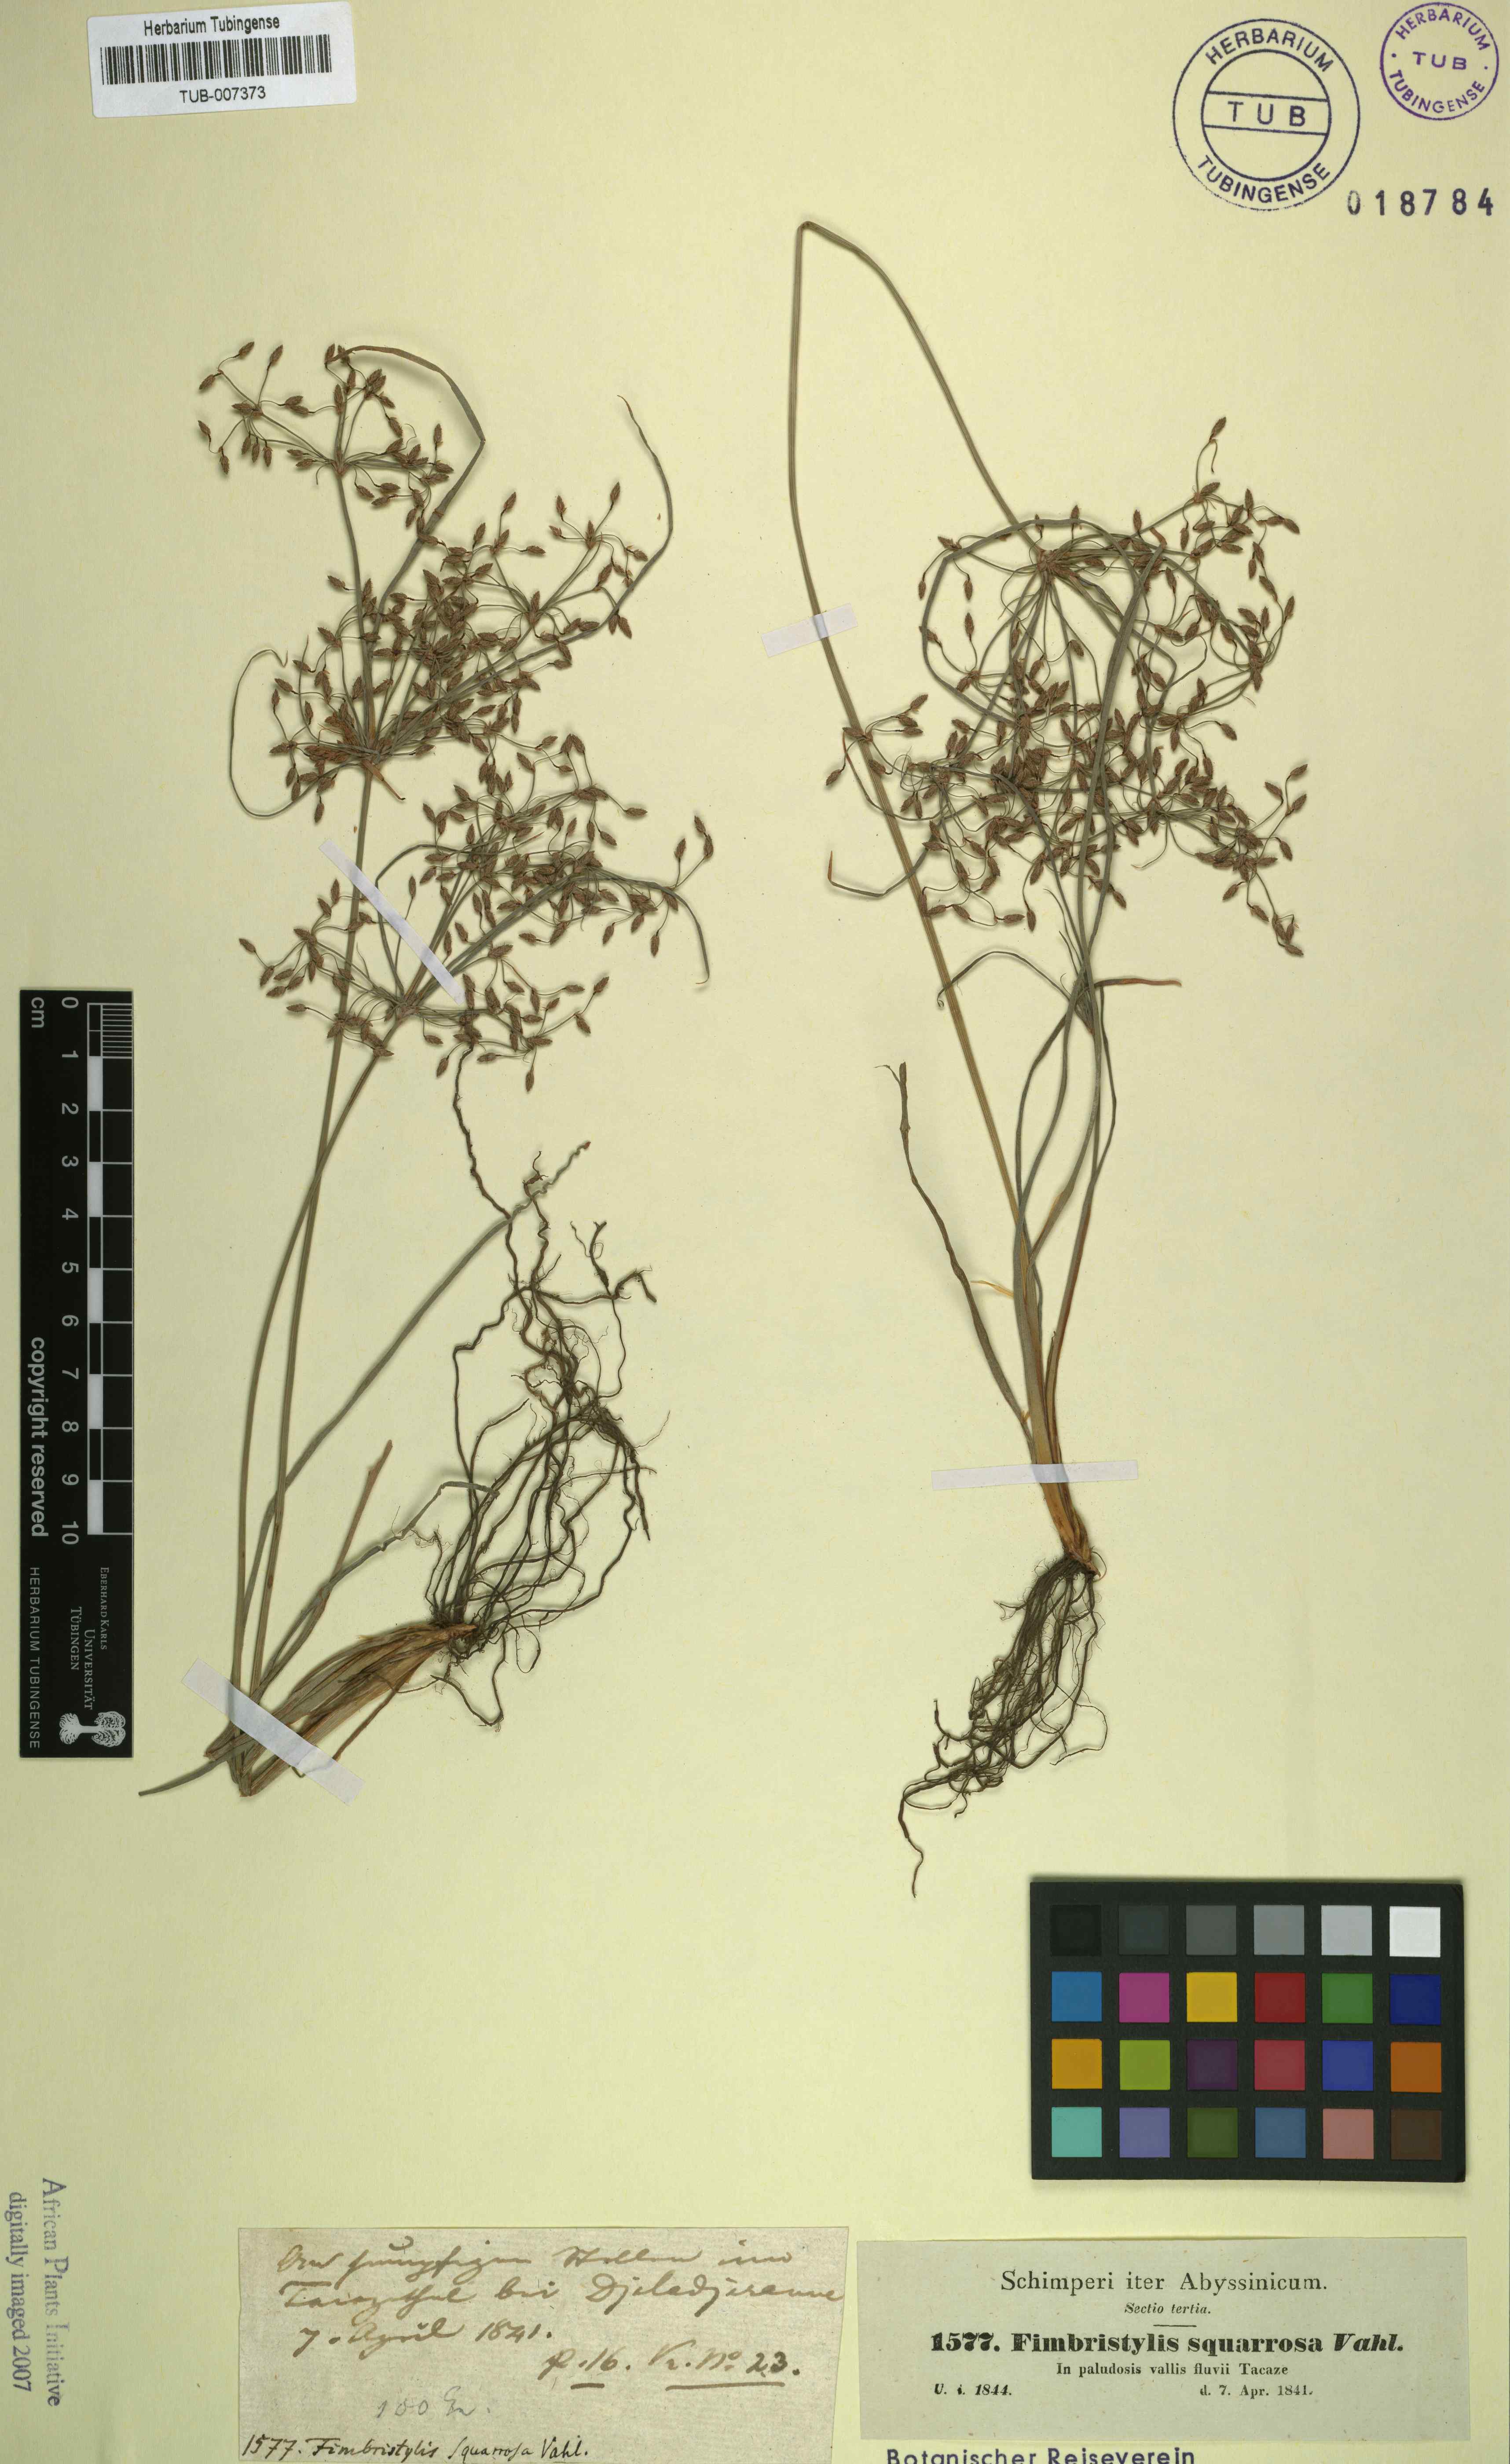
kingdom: Plantae
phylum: Tracheophyta
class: Liliopsida
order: Poales
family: Cyperaceae
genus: Fimbristylis
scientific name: Fimbristylis squarrosa
